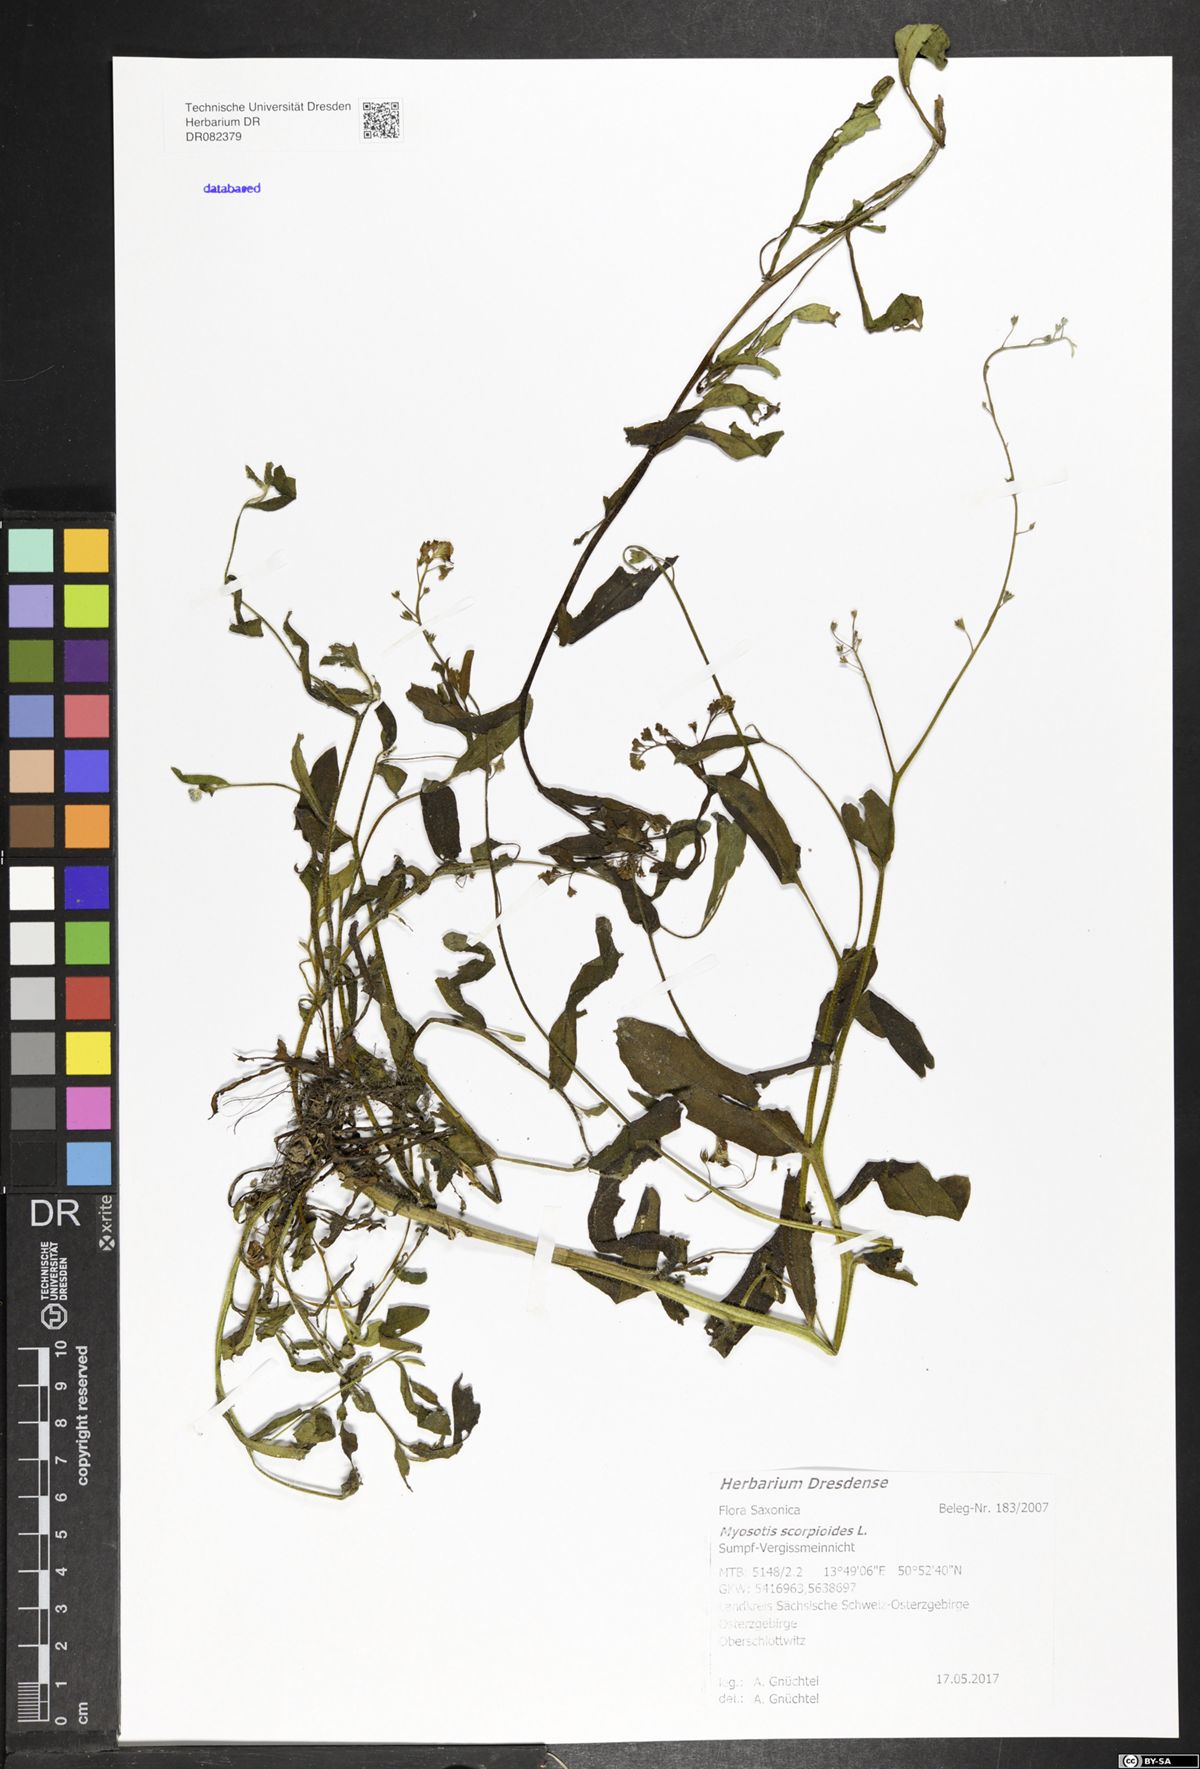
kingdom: Plantae
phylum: Tracheophyta
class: Magnoliopsida
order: Boraginales
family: Boraginaceae
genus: Myosotis
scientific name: Myosotis scorpioides
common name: Water forget-me-not
